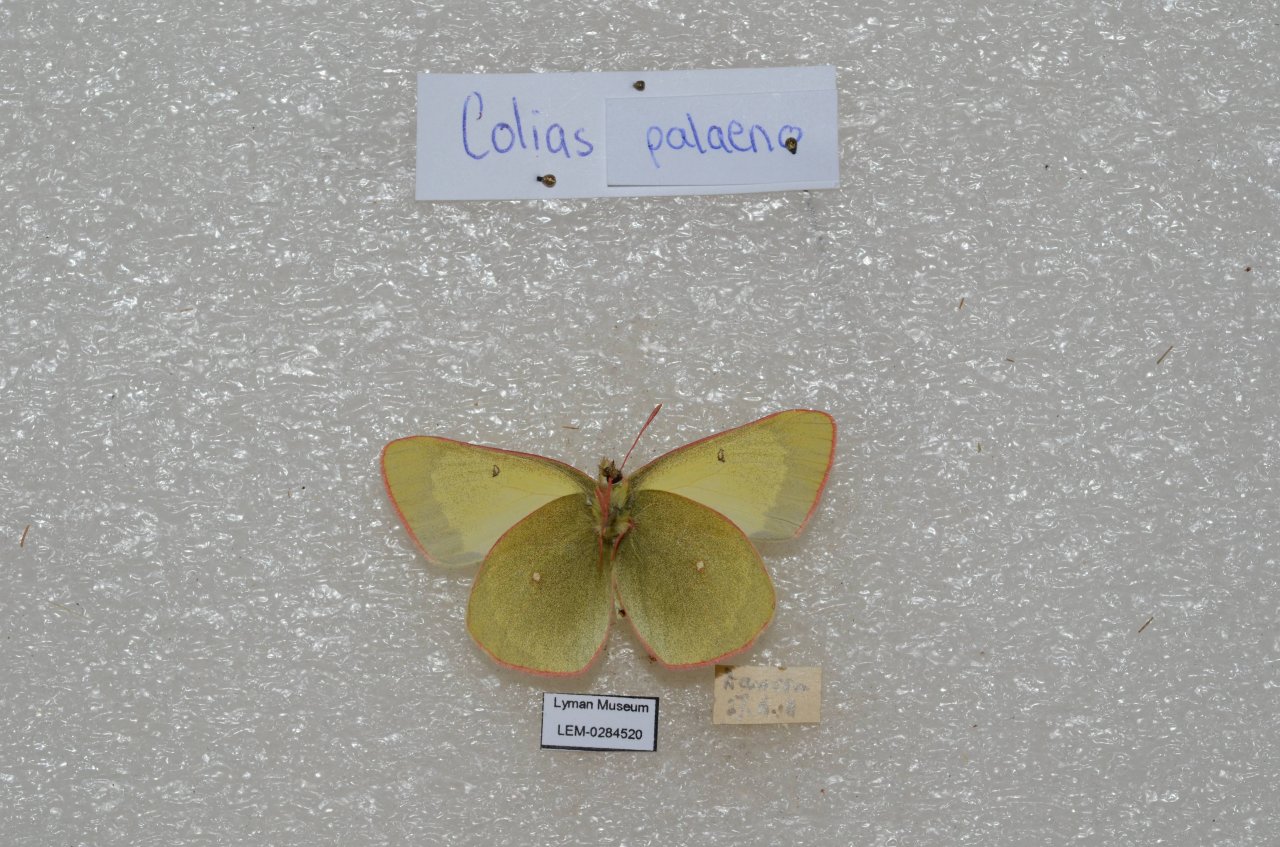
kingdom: Animalia
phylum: Arthropoda
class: Insecta
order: Lepidoptera
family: Pieridae
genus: Colias
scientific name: Colias palaeno
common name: Chippewa Sulphur
